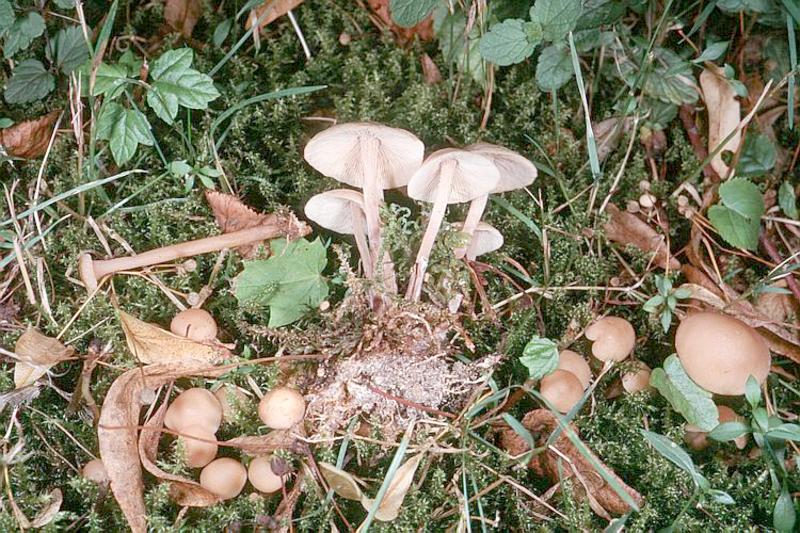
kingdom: Fungi
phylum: Basidiomycota
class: Agaricomycetes
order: Agaricales
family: Omphalotaceae
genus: Collybiopsis
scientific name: Collybiopsis confluens
